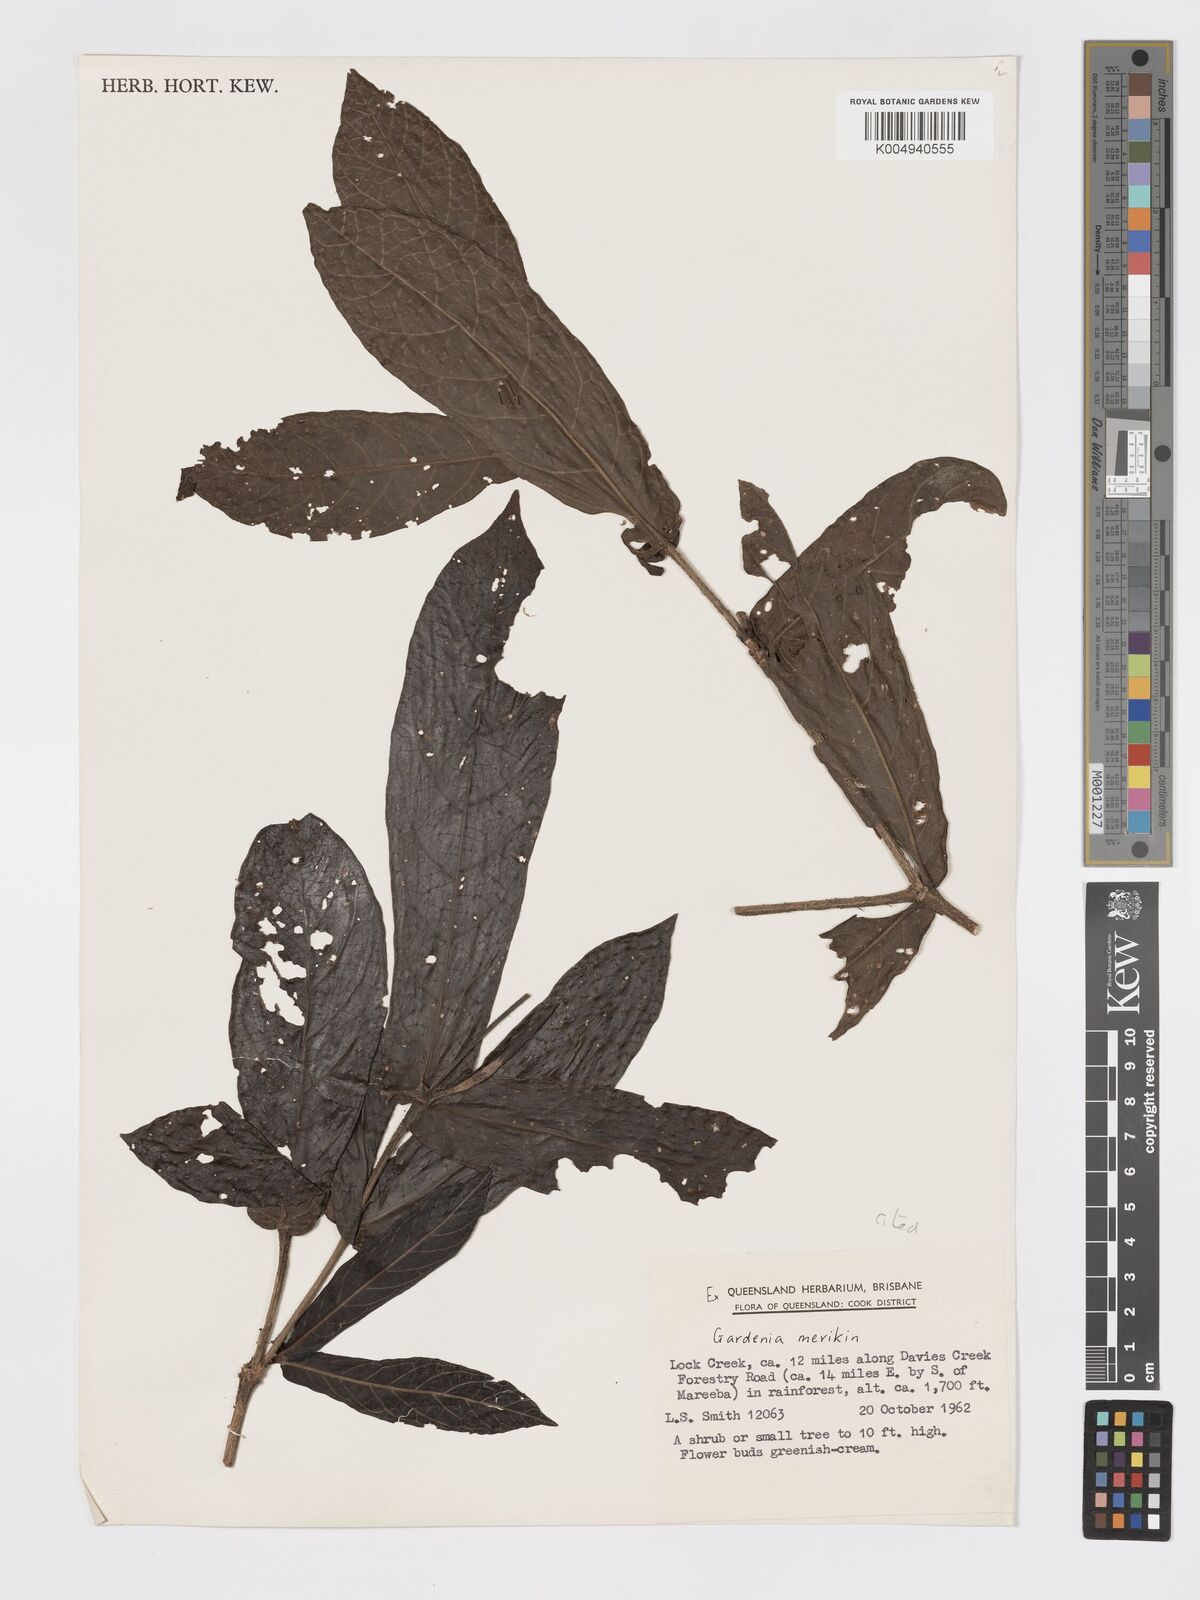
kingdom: Plantae
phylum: Tracheophyta
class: Magnoliopsida
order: Gentianales
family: Rubiaceae
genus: Atractocarpus
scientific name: Atractocarpus merikin
